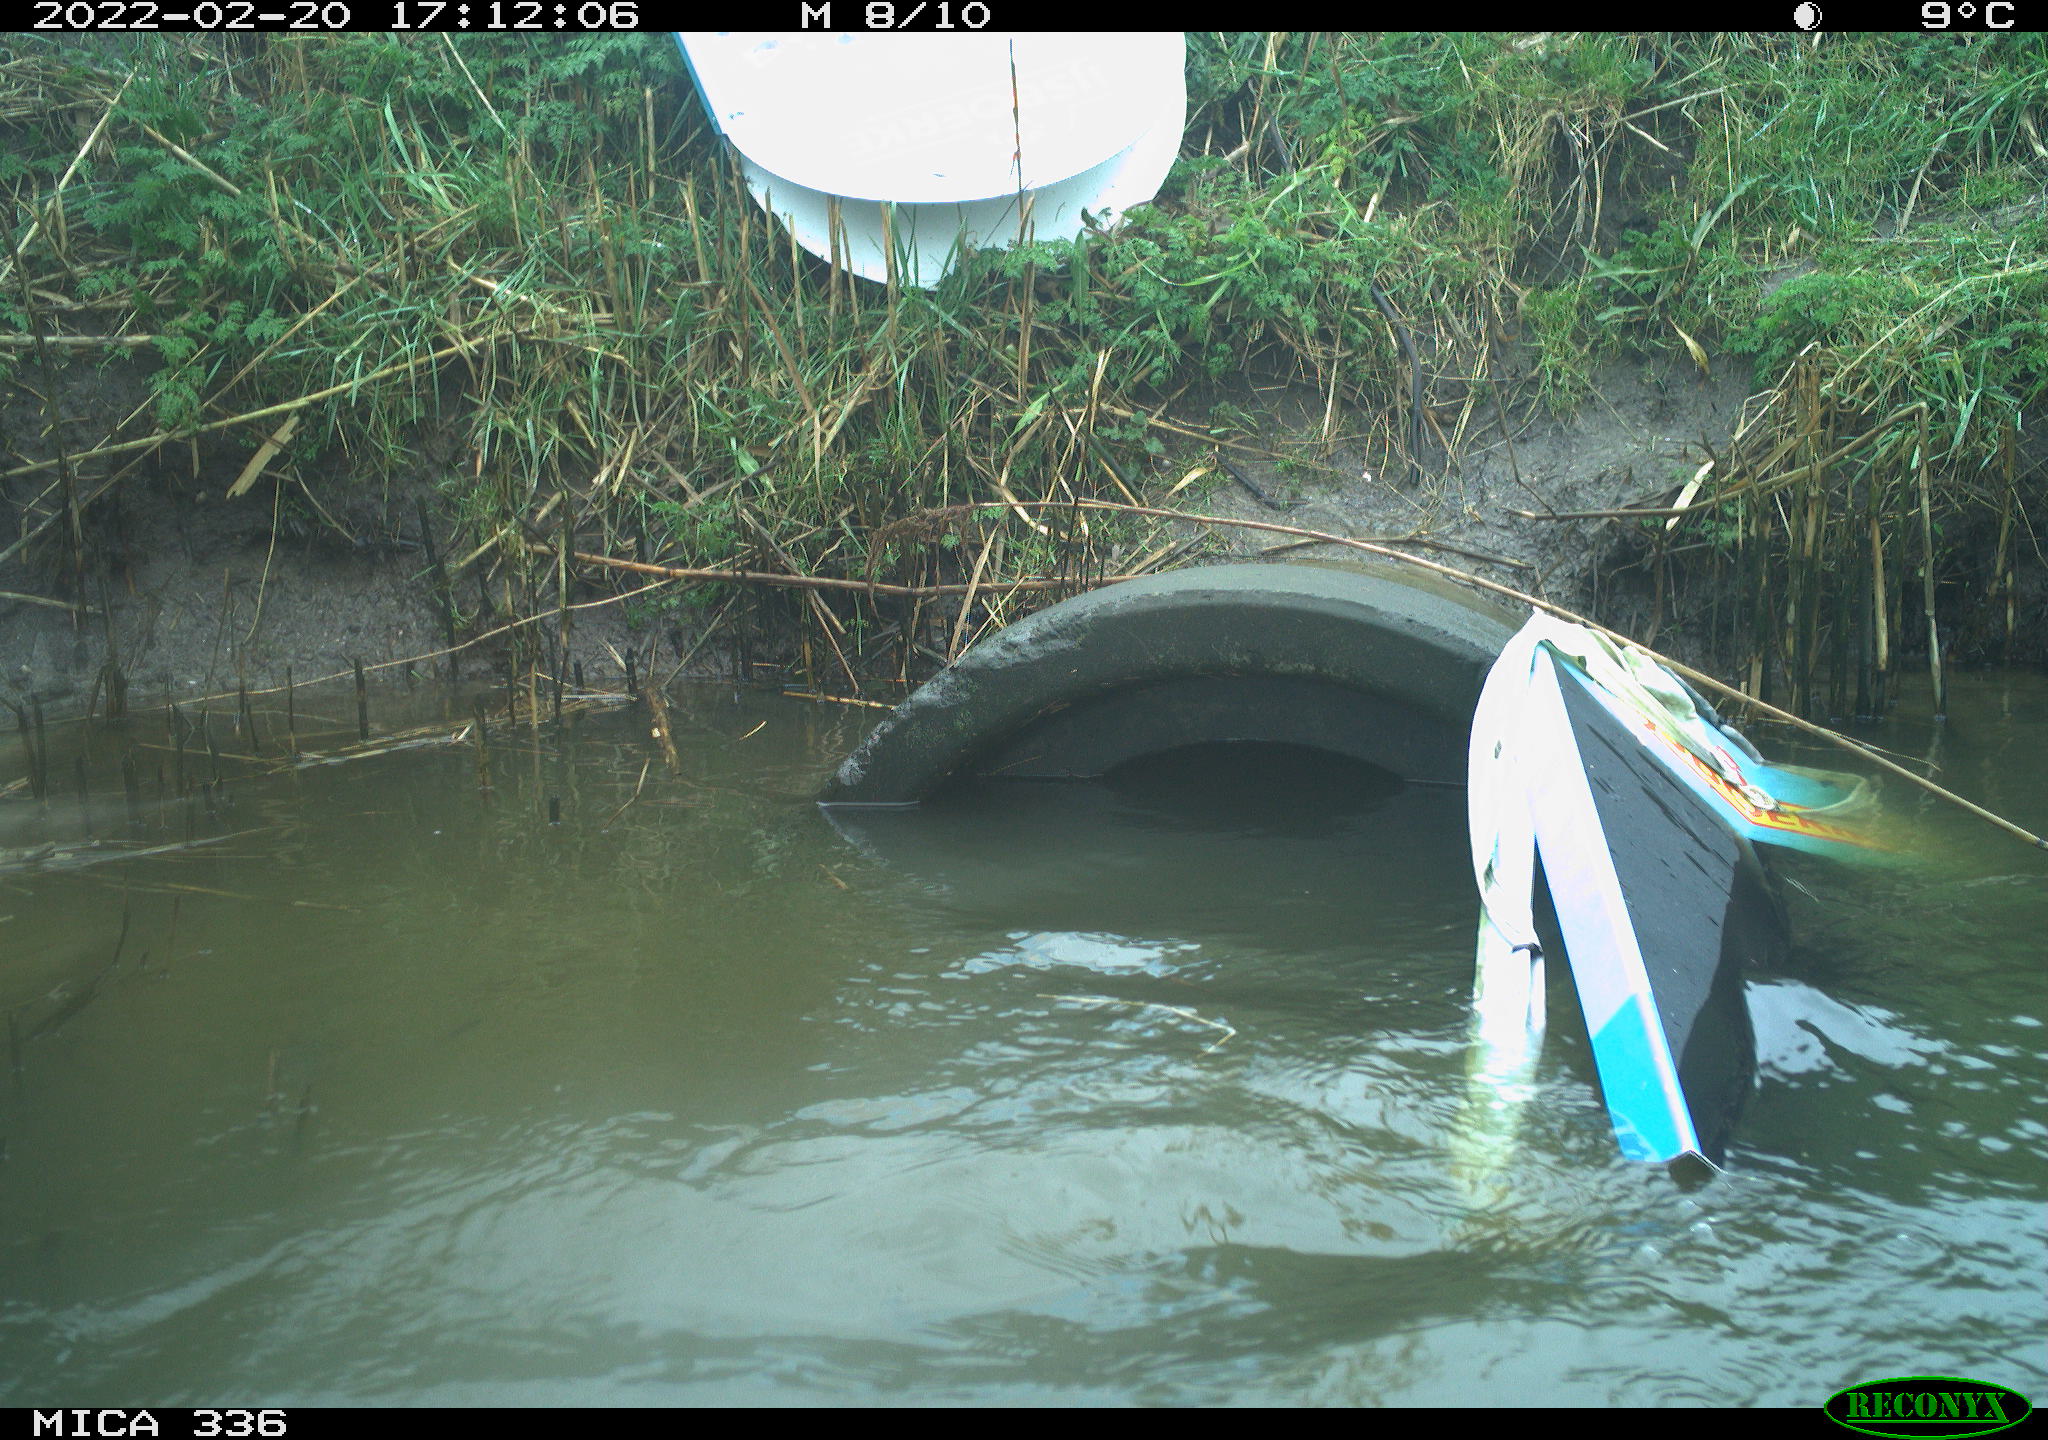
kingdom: Animalia
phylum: Chordata
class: Aves
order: Suliformes
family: Phalacrocoracidae
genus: Phalacrocorax
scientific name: Phalacrocorax carbo
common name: Great cormorant
